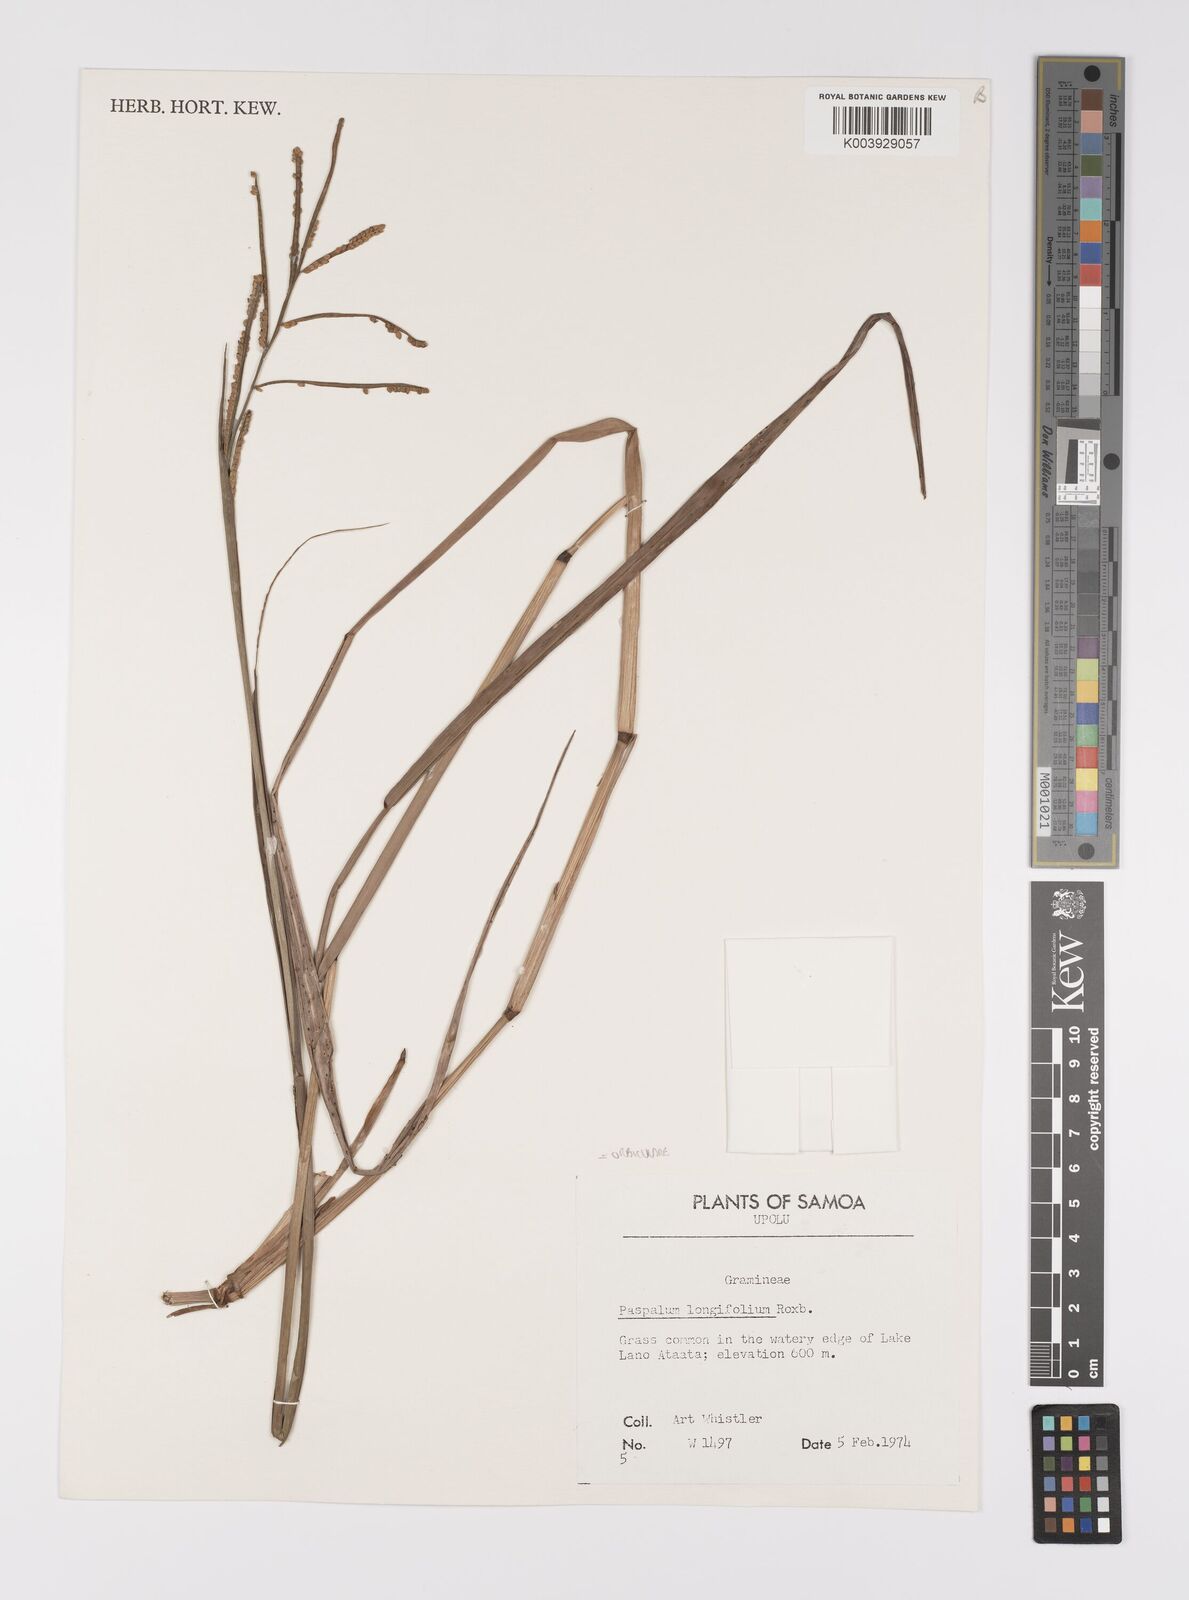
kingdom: Plantae
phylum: Tracheophyta
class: Liliopsida
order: Poales
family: Poaceae
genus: Paspalum
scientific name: Paspalum scrobiculatum
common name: Kodo millet
